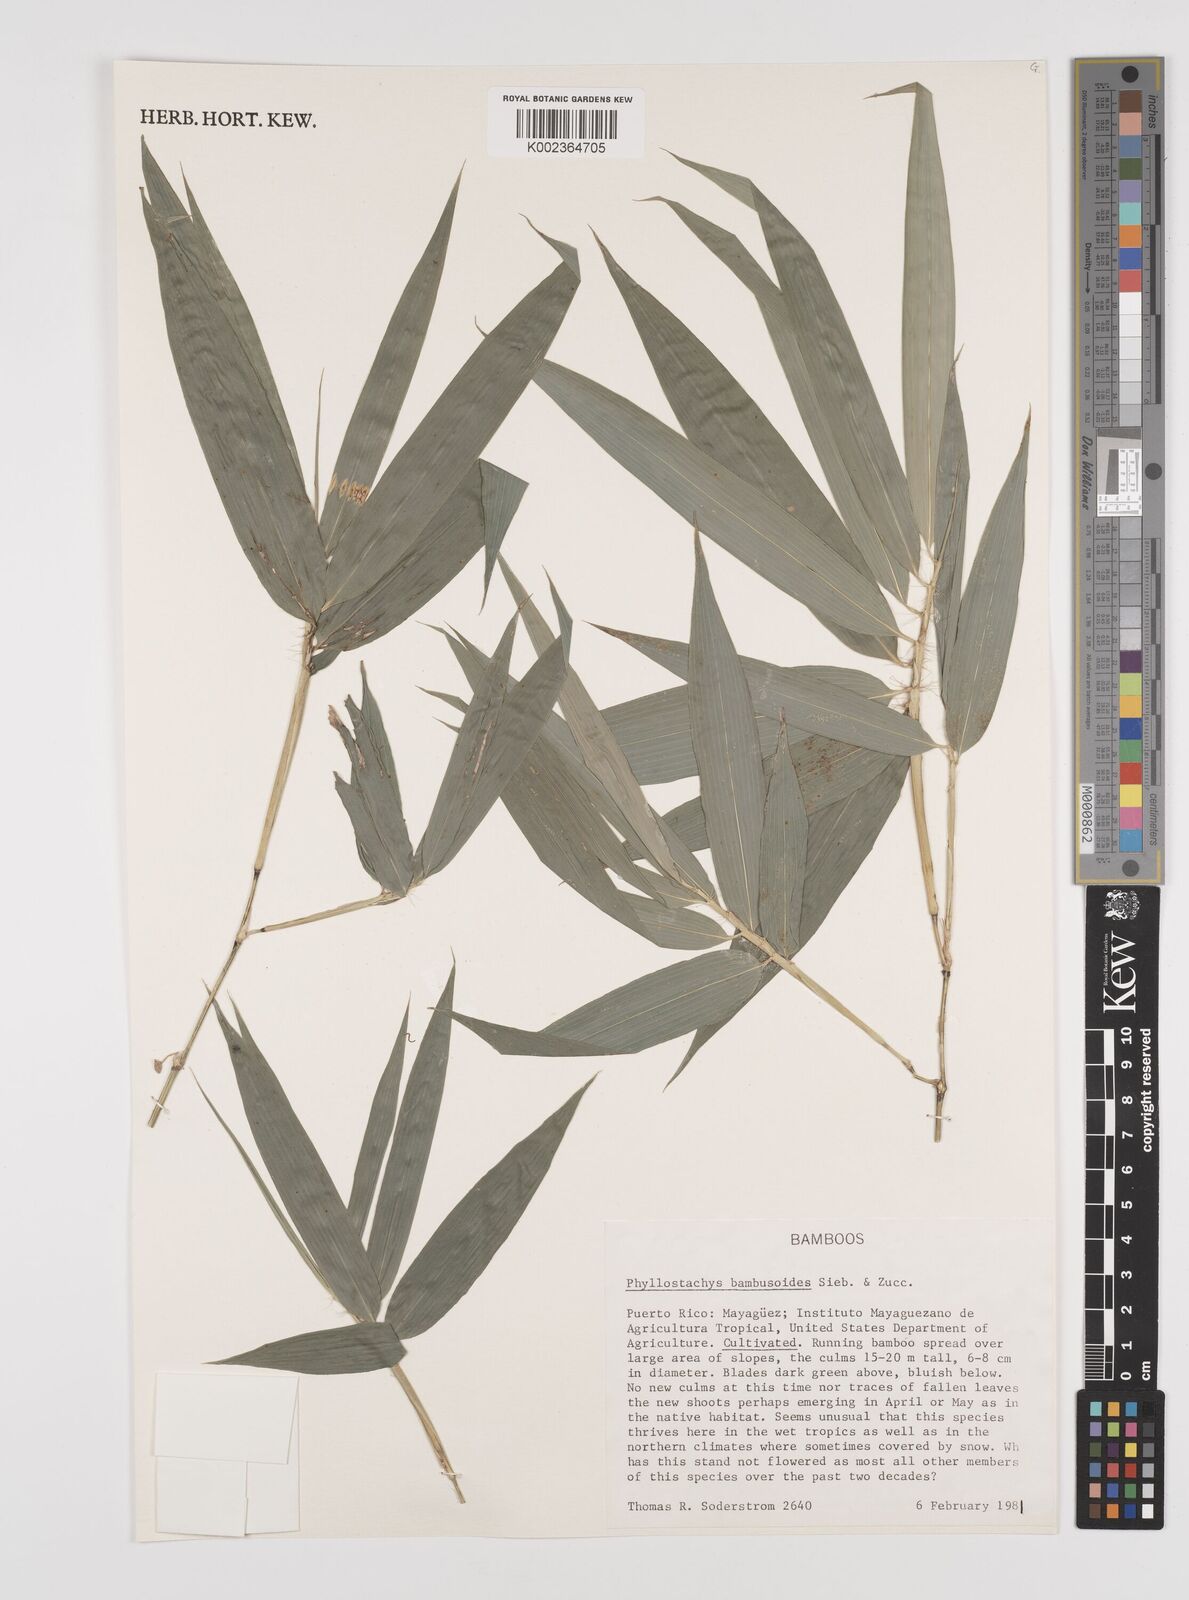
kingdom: Plantae
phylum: Tracheophyta
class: Liliopsida
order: Poales
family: Poaceae
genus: Phyllostachys
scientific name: Phyllostachys reticulata
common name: Bamboo
